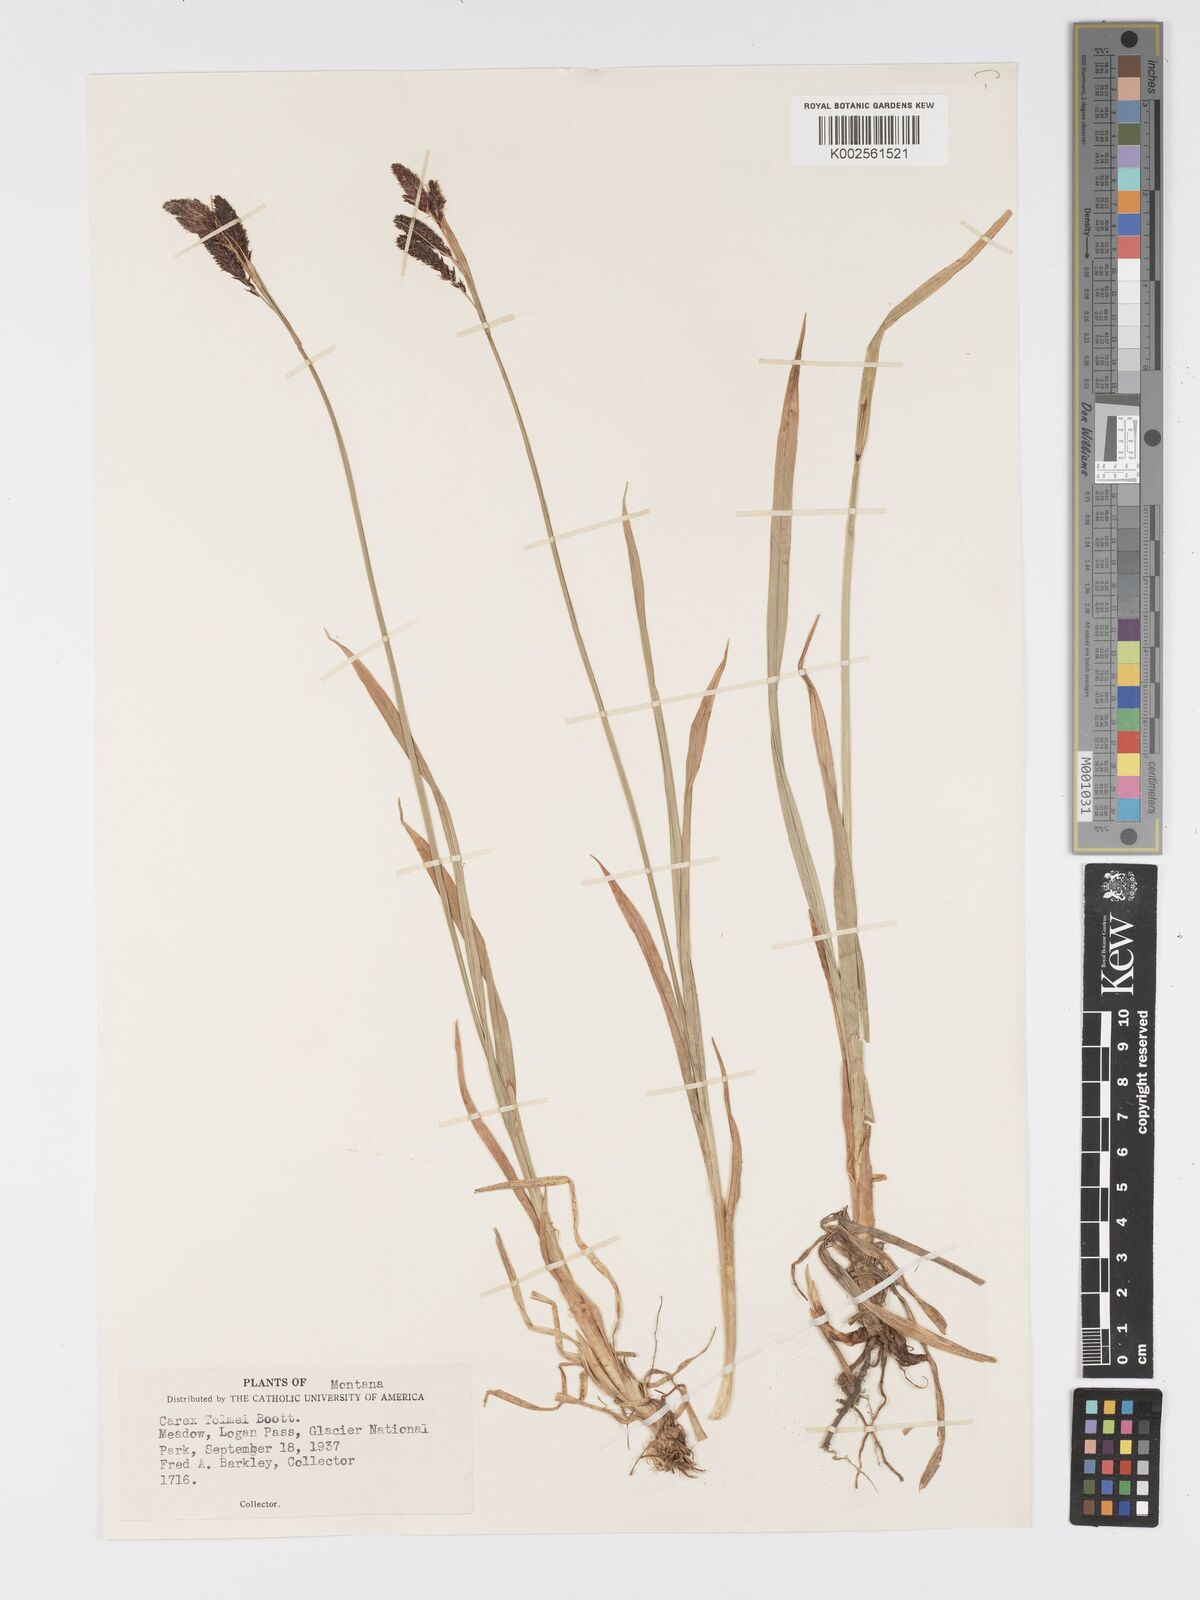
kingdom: Plantae
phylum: Tracheophyta
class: Liliopsida
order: Poales
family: Cyperaceae
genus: Carex
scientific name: Carex spectabilis
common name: Northwestern showy sedge
